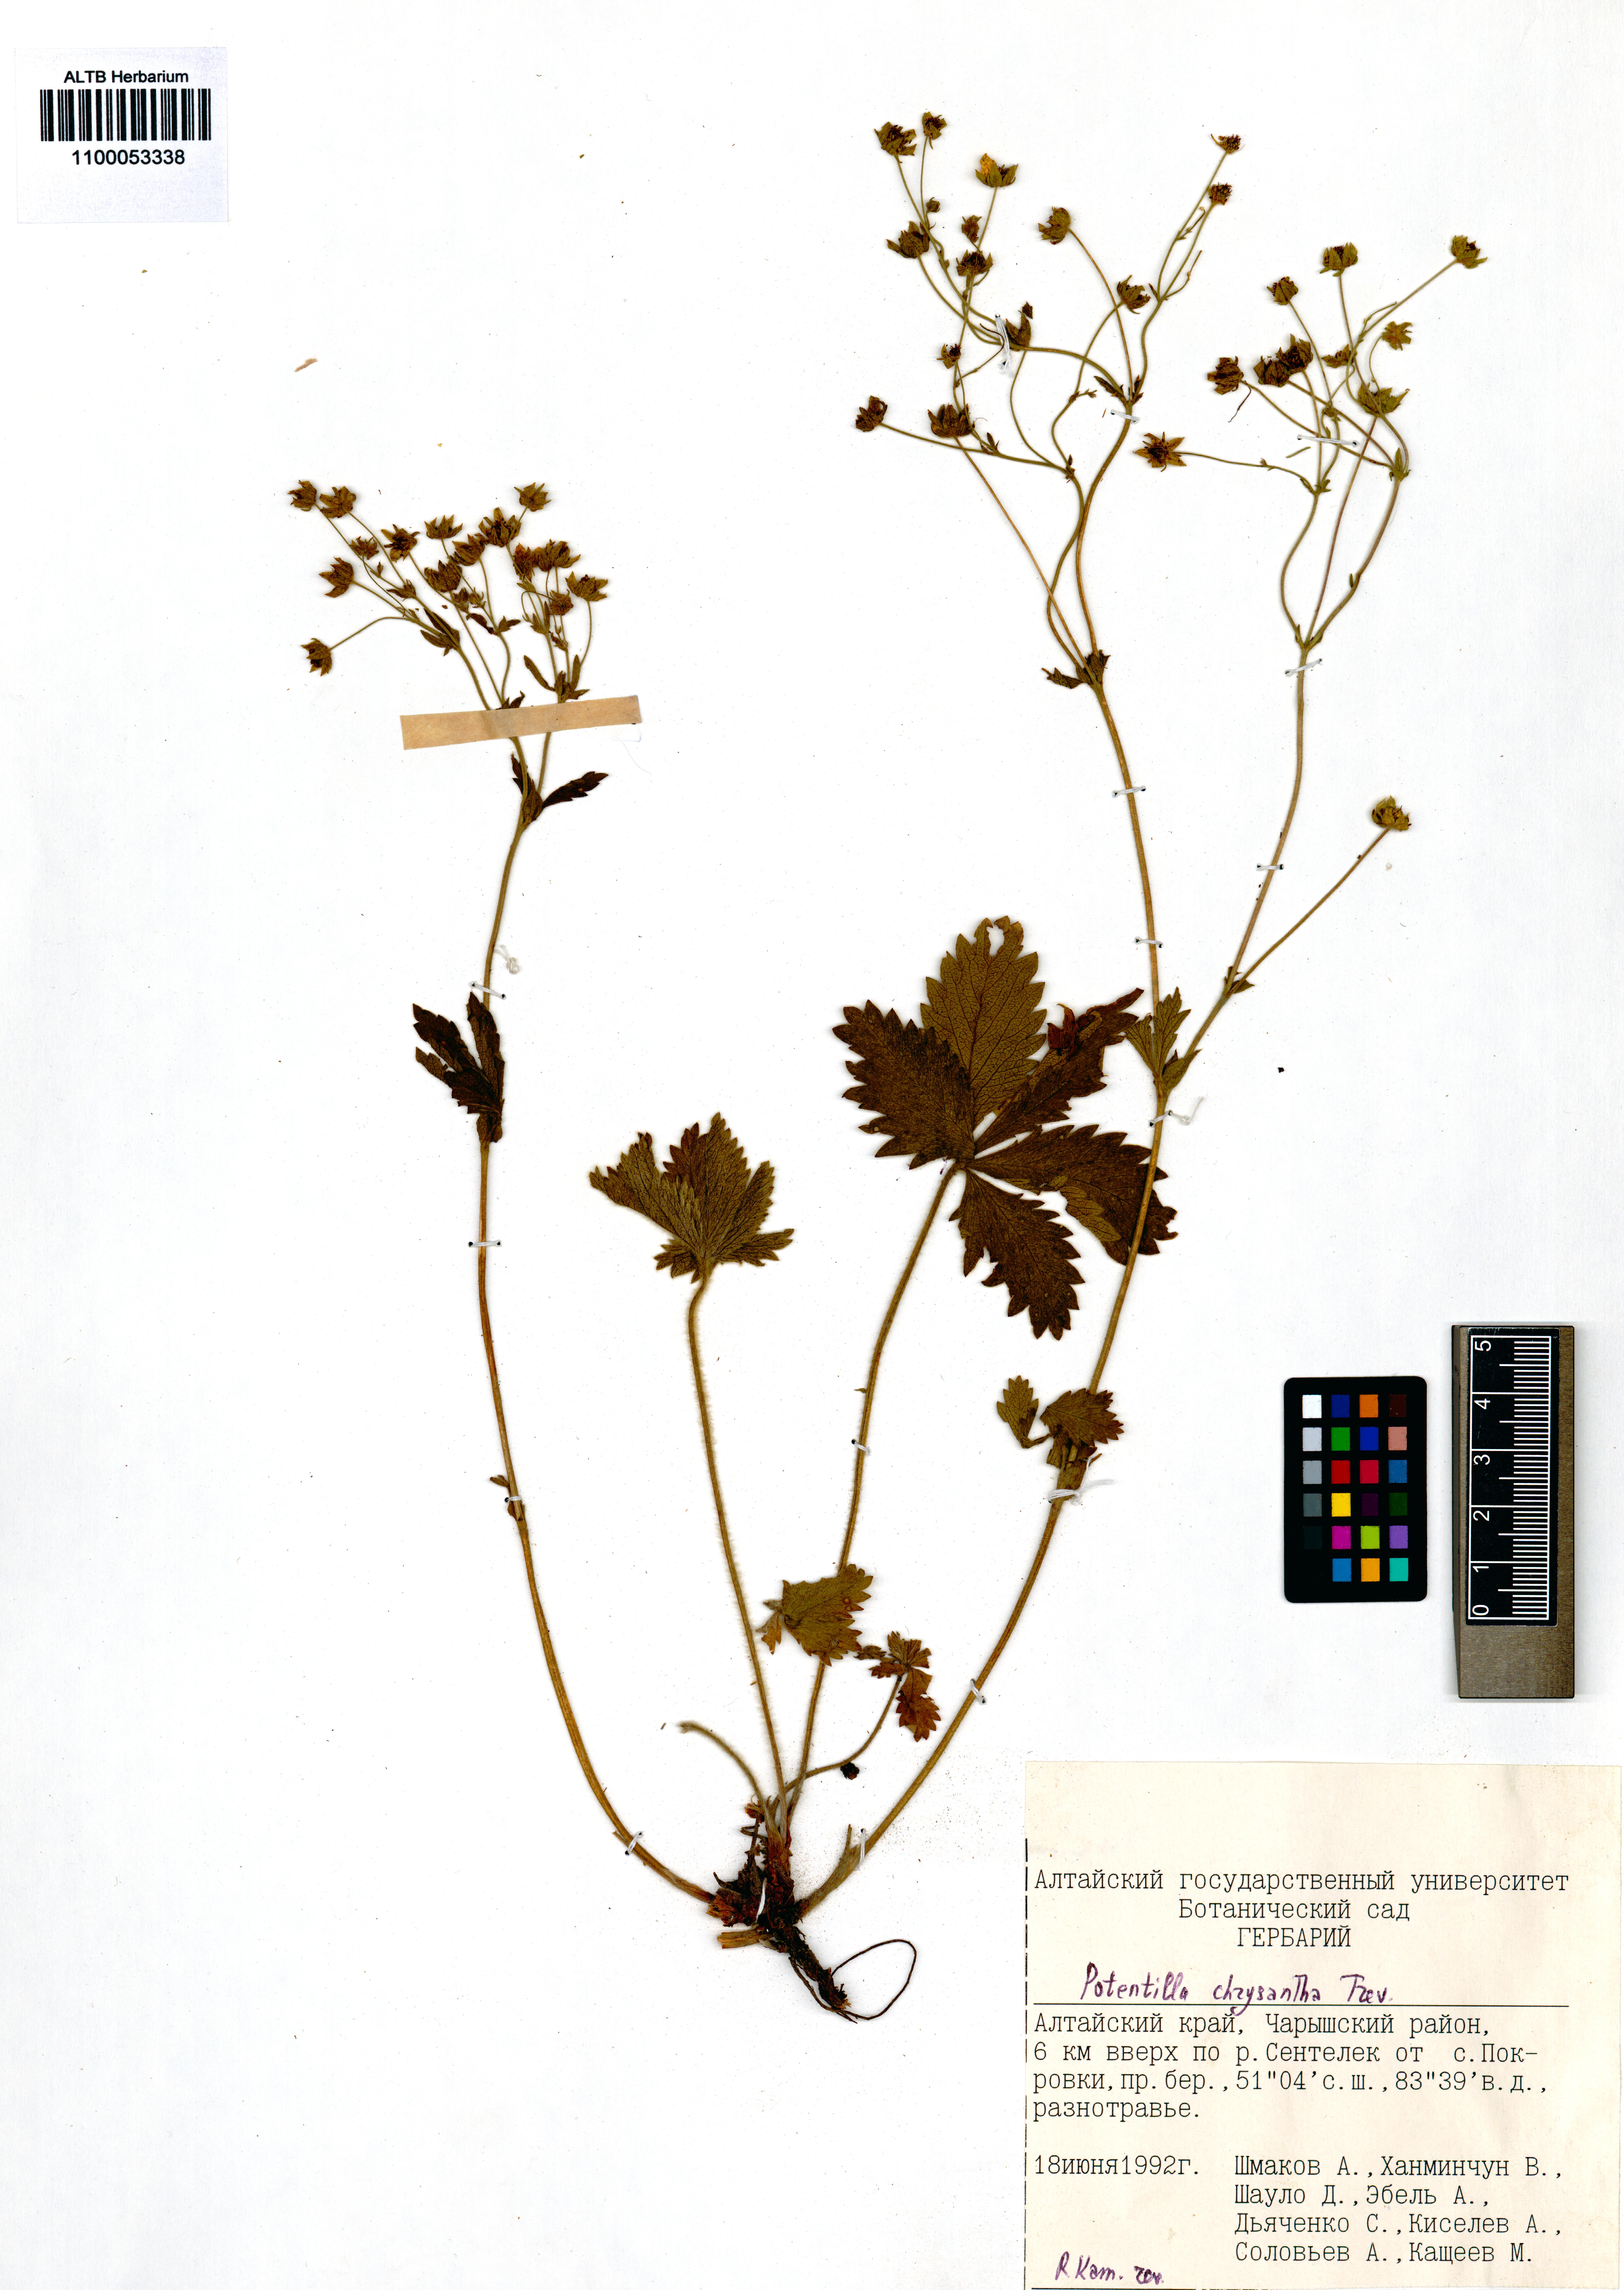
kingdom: Plantae
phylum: Tracheophyta
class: Magnoliopsida
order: Rosales
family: Rosaceae
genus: Potentilla
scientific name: Potentilla chrysantha
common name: Thuringian cinquefoil
